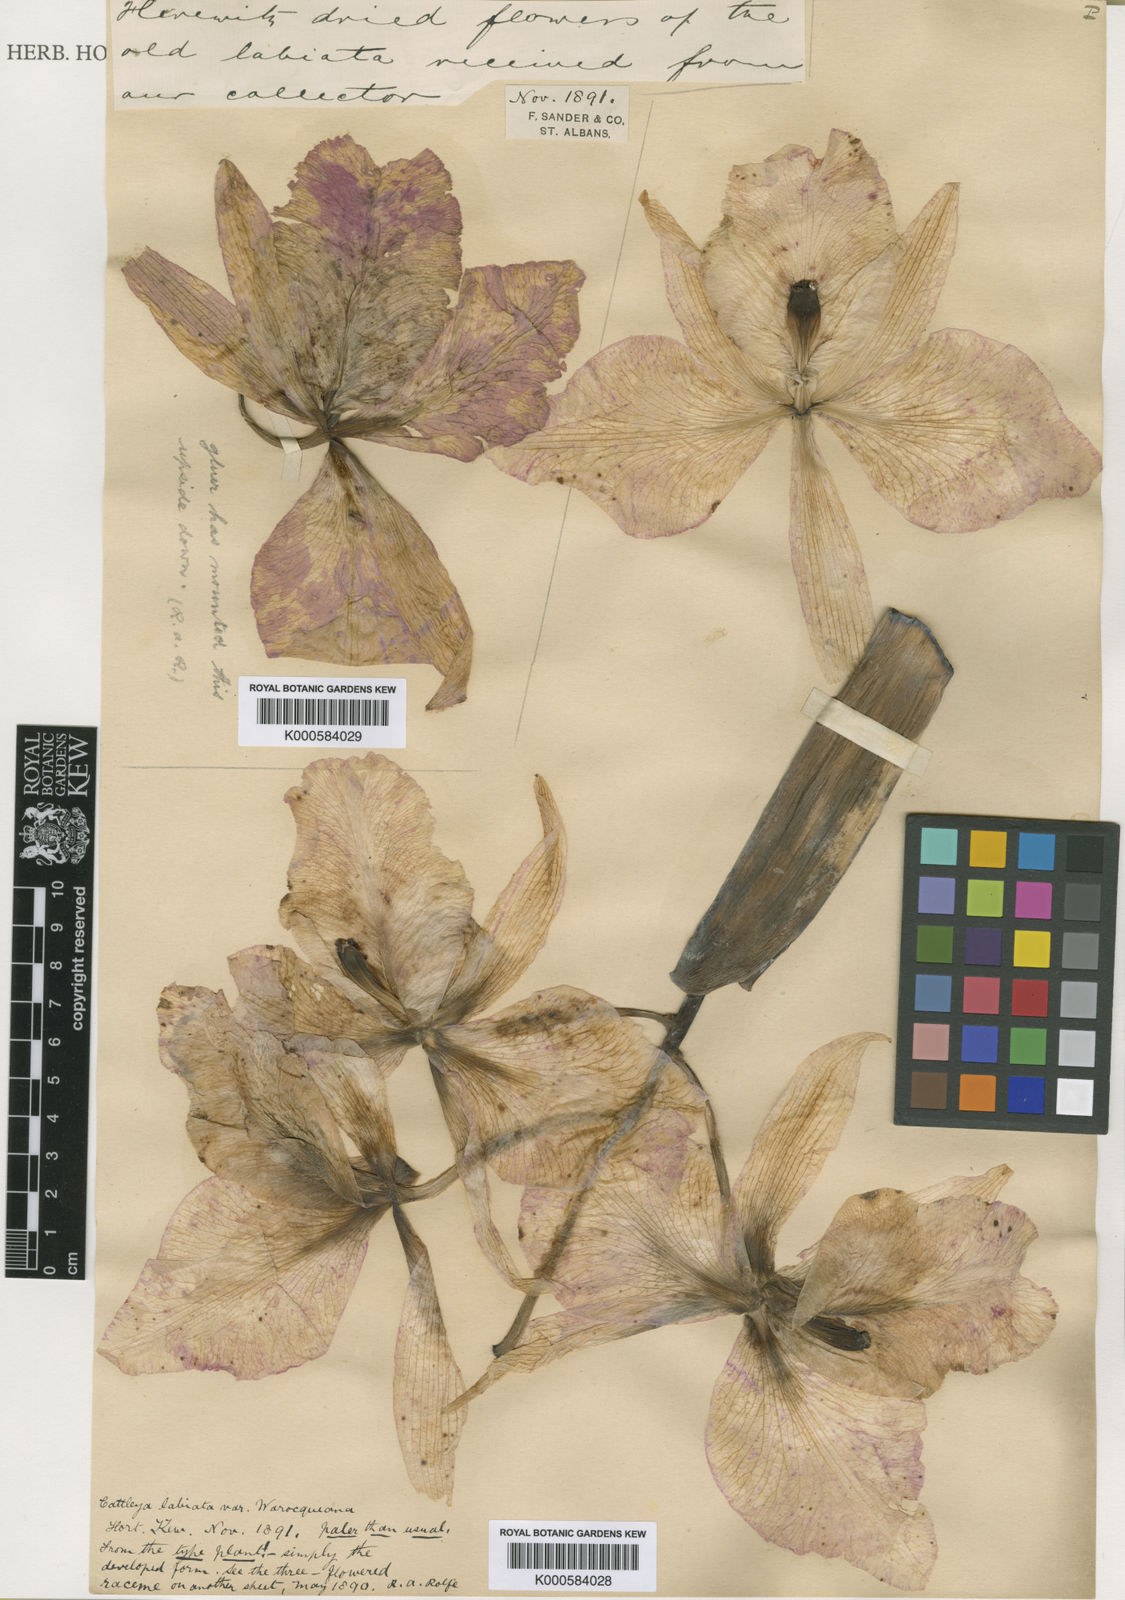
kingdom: Plantae
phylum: Tracheophyta
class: Liliopsida
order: Asparagales
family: Orchidaceae
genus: Cattleya
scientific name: Cattleya labiata
